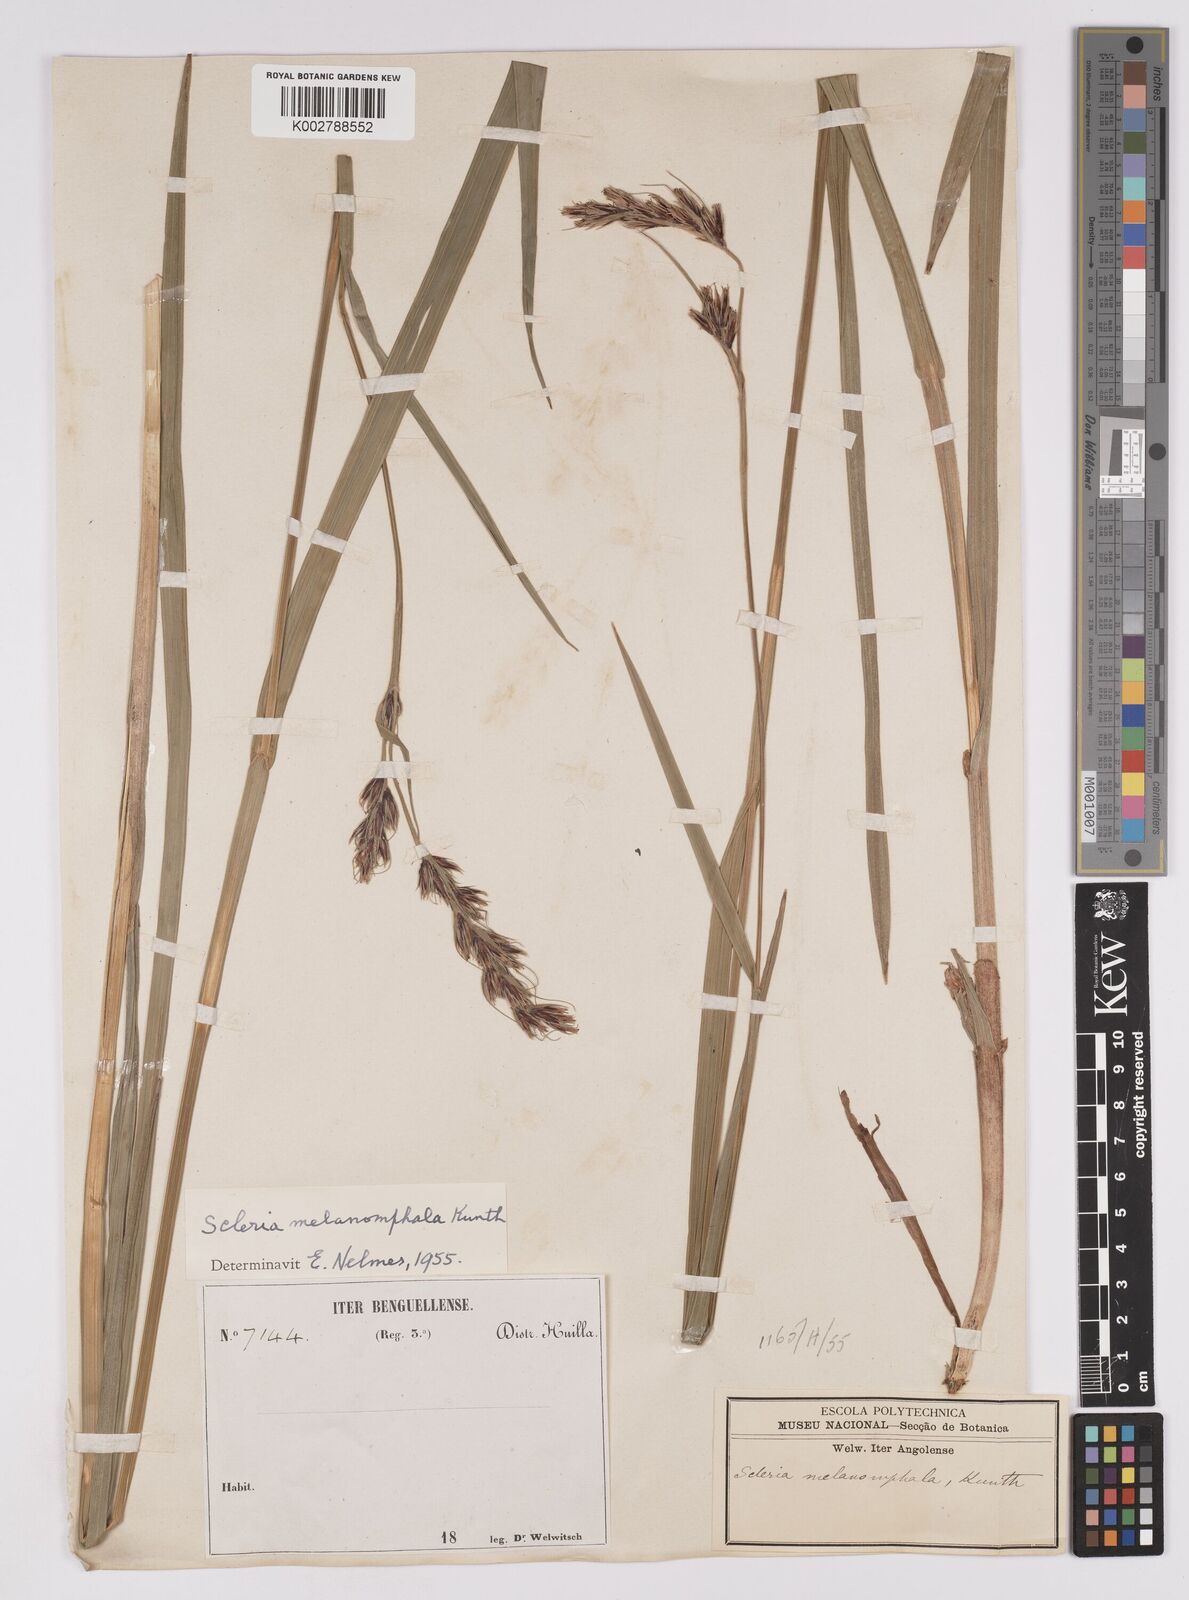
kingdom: Plantae
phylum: Tracheophyta
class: Liliopsida
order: Poales
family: Cyperaceae
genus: Scleria
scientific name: Scleria melanomphala
